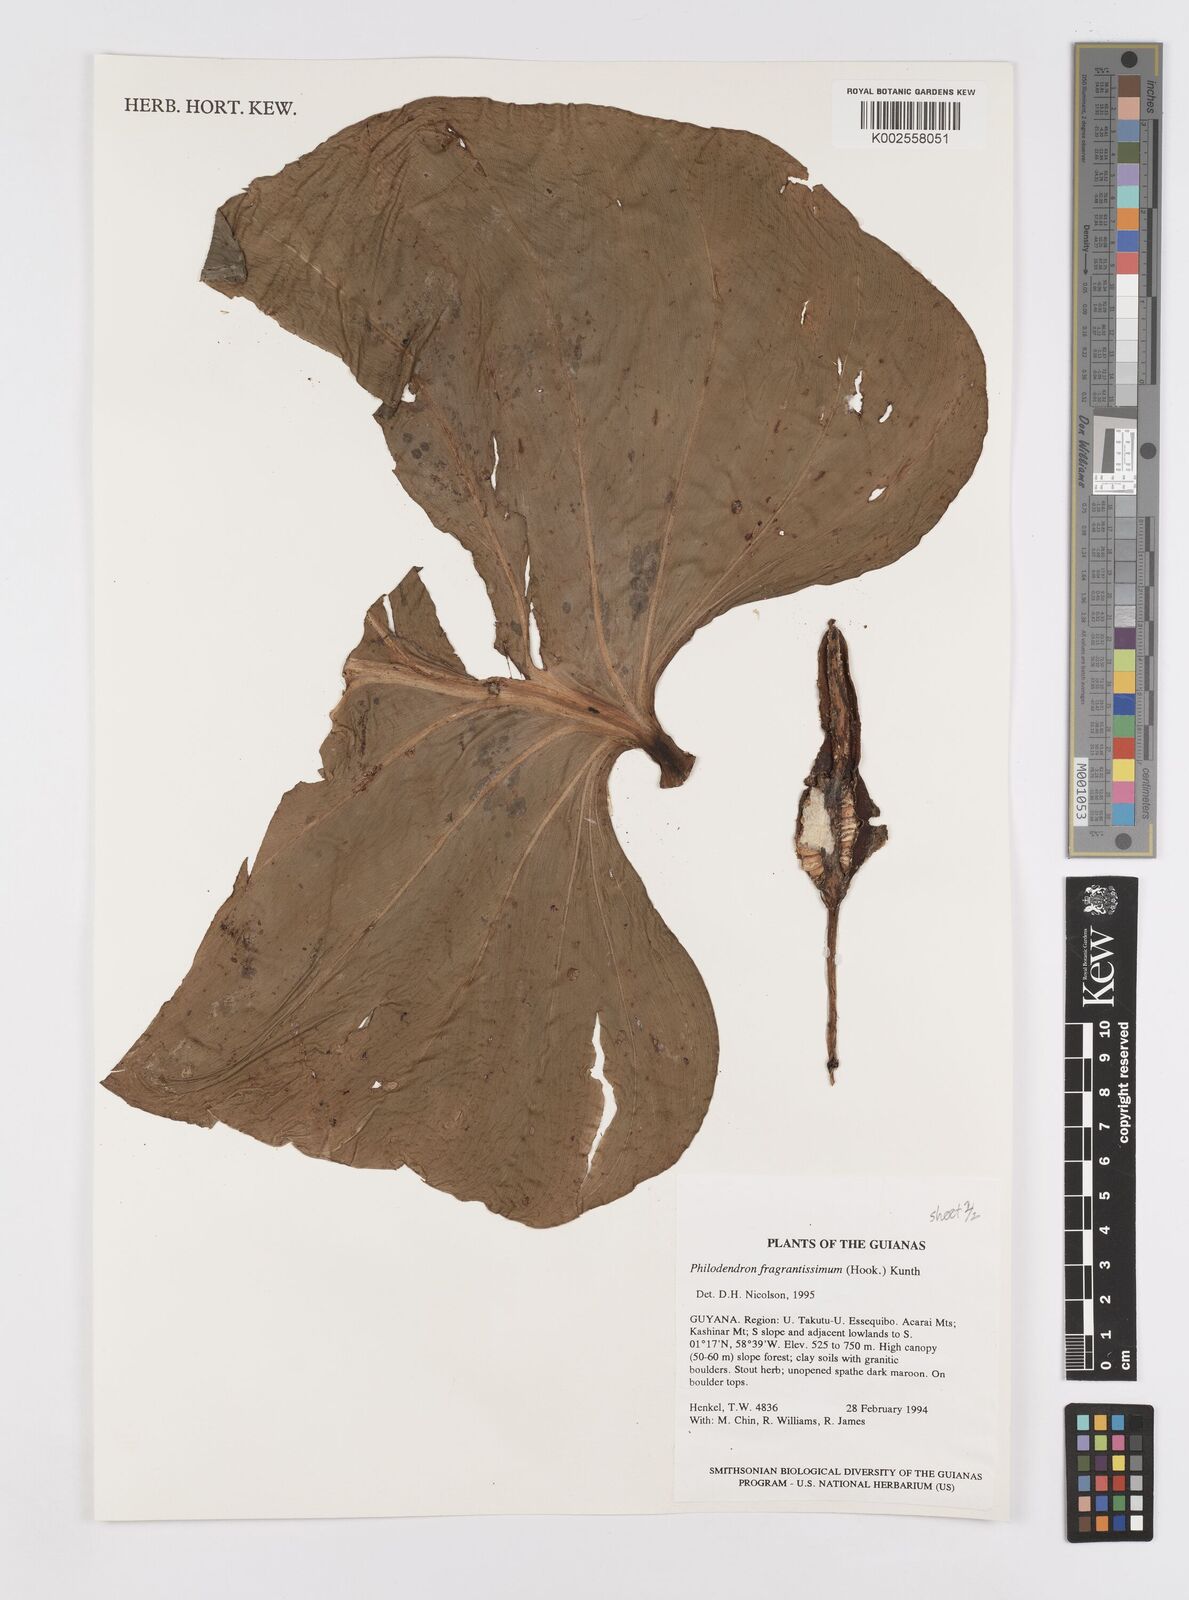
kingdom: Plantae
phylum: Tracheophyta
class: Liliopsida
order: Alismatales
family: Araceae
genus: Philodendron
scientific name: Philodendron fragrantissimum
